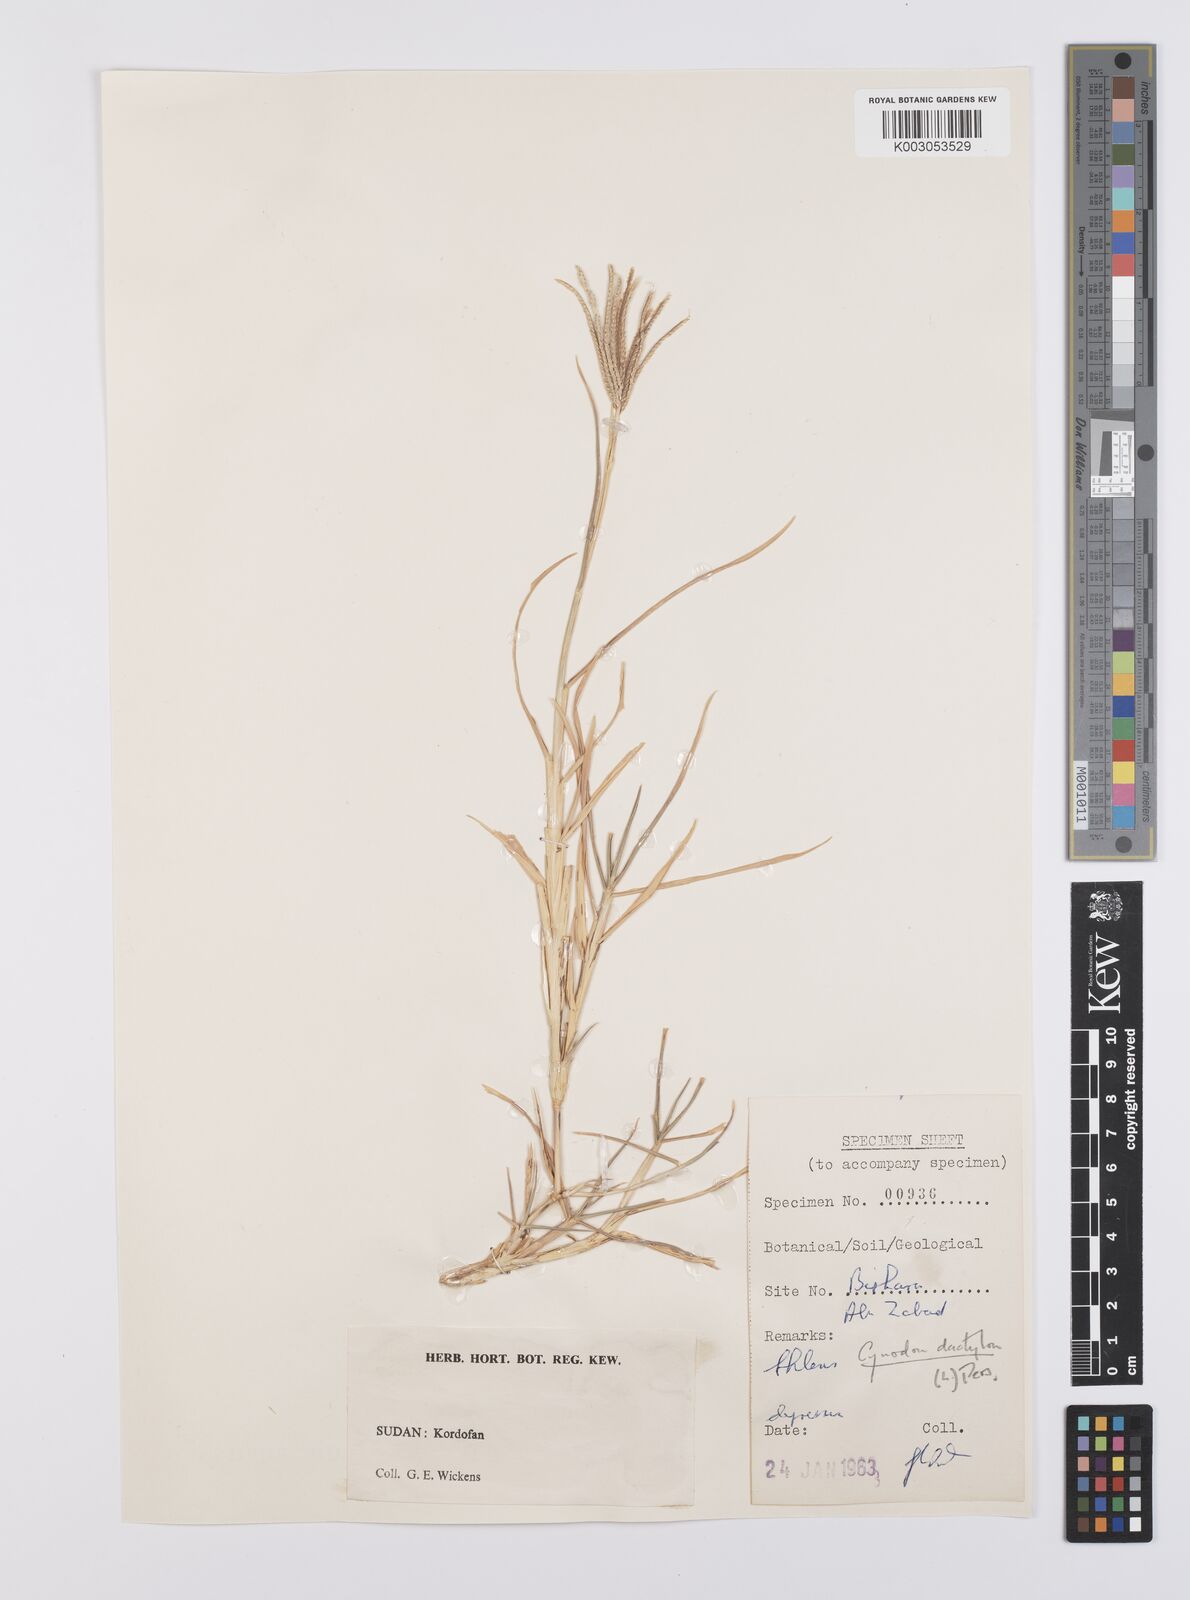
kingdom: Plantae
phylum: Tracheophyta
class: Liliopsida
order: Poales
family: Poaceae
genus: Cynodon
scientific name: Cynodon dactylon
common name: Bermuda grass
